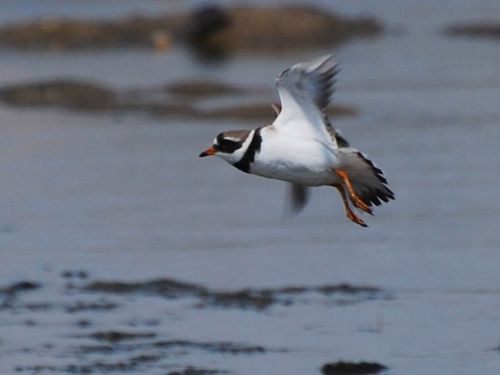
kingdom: Animalia
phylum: Chordata
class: Aves
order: Charadriiformes
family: Charadriidae
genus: Charadrius
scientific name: Charadrius hiaticula
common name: Common ringed plover
